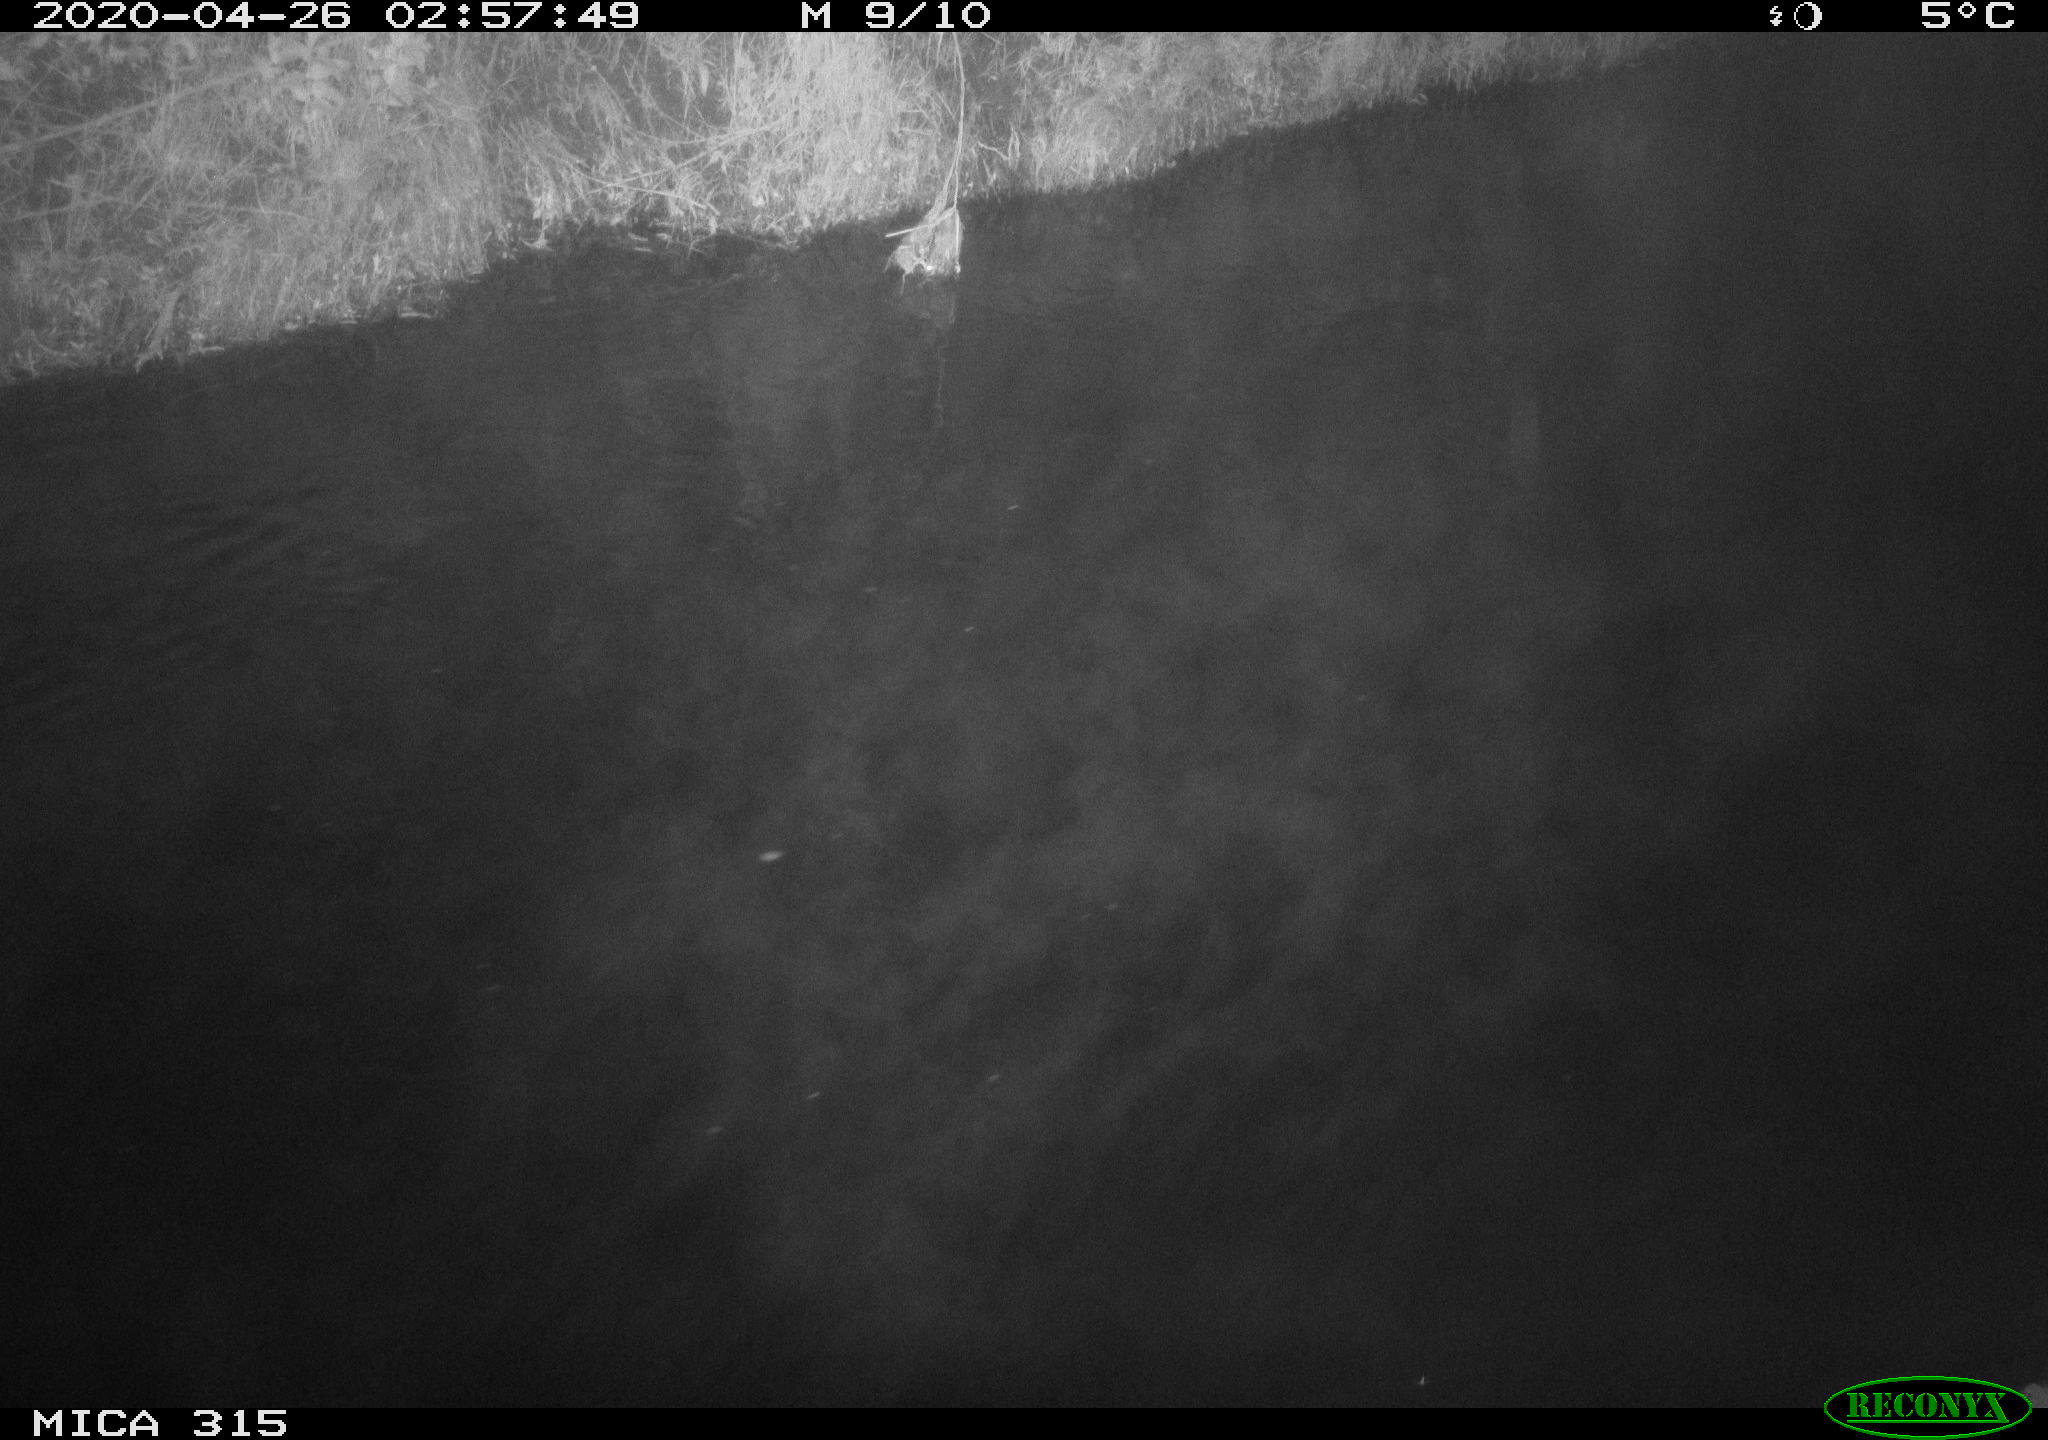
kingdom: Animalia
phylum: Chordata
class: Aves
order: Anseriformes
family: Anatidae
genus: Anas
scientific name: Anas platyrhynchos
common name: Mallard
